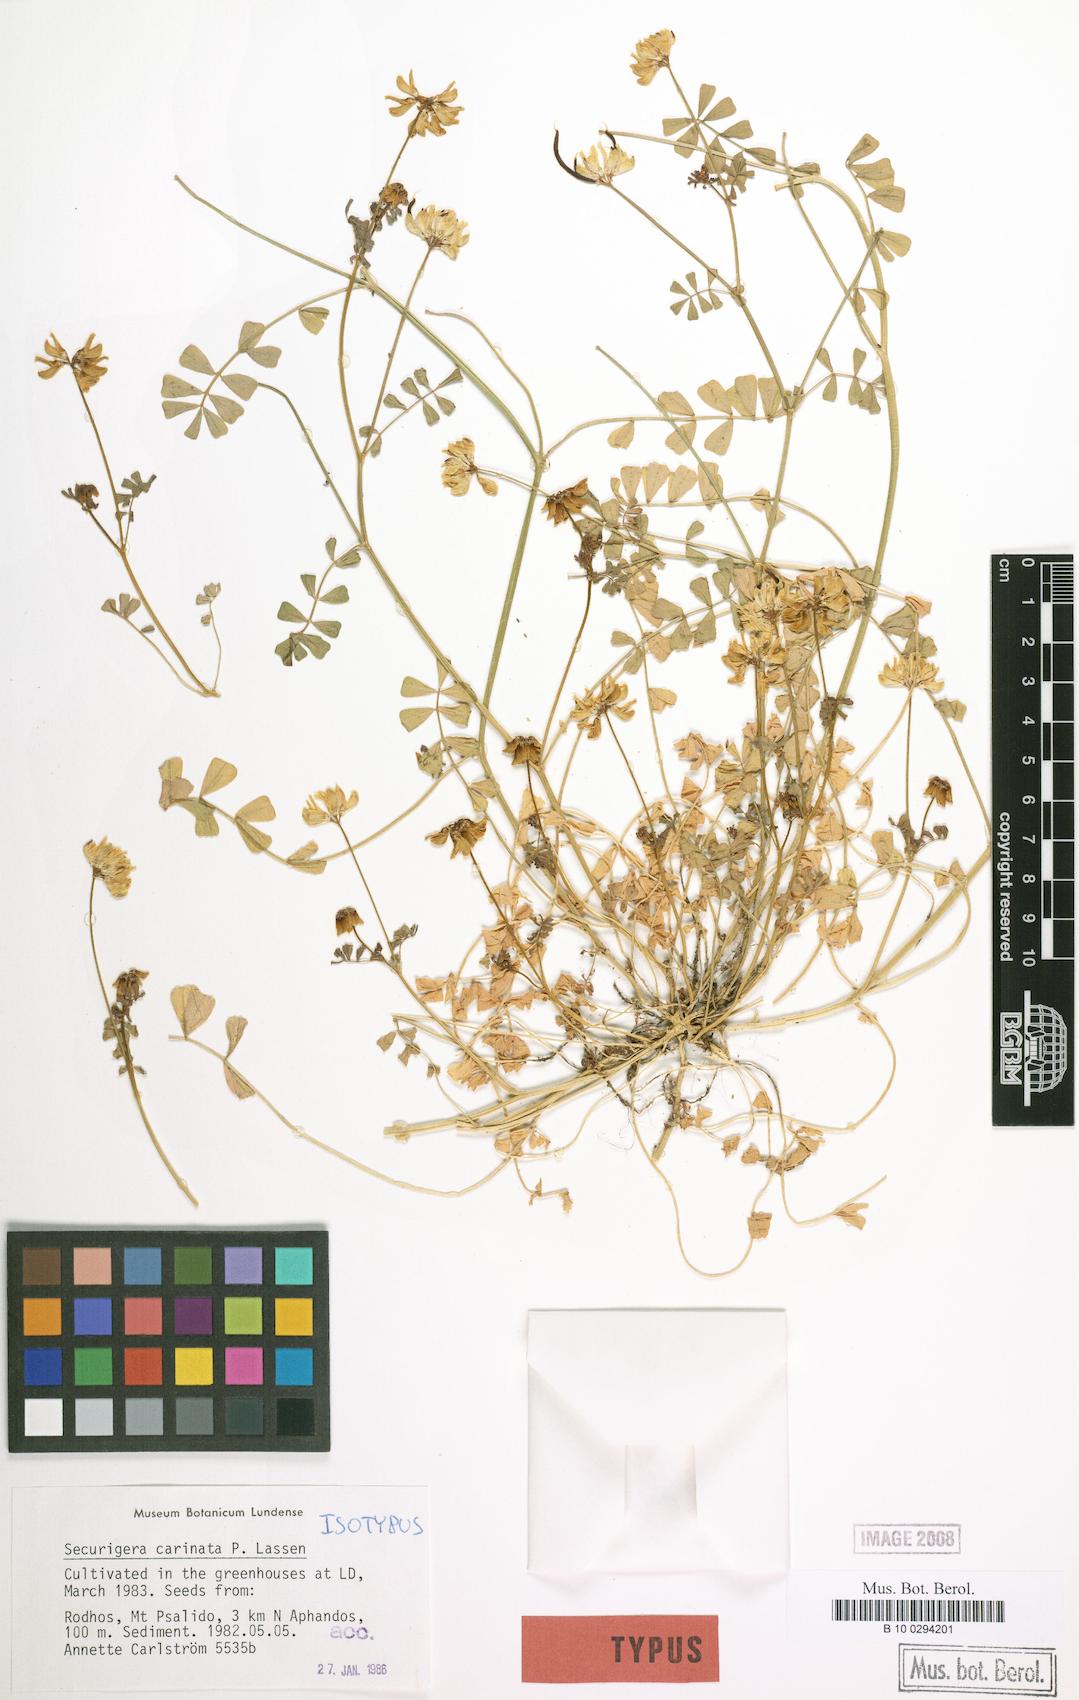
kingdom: Plantae
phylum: Tracheophyta
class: Magnoliopsida
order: Fabales
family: Fabaceae
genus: Coronilla
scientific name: Coronilla carinata
